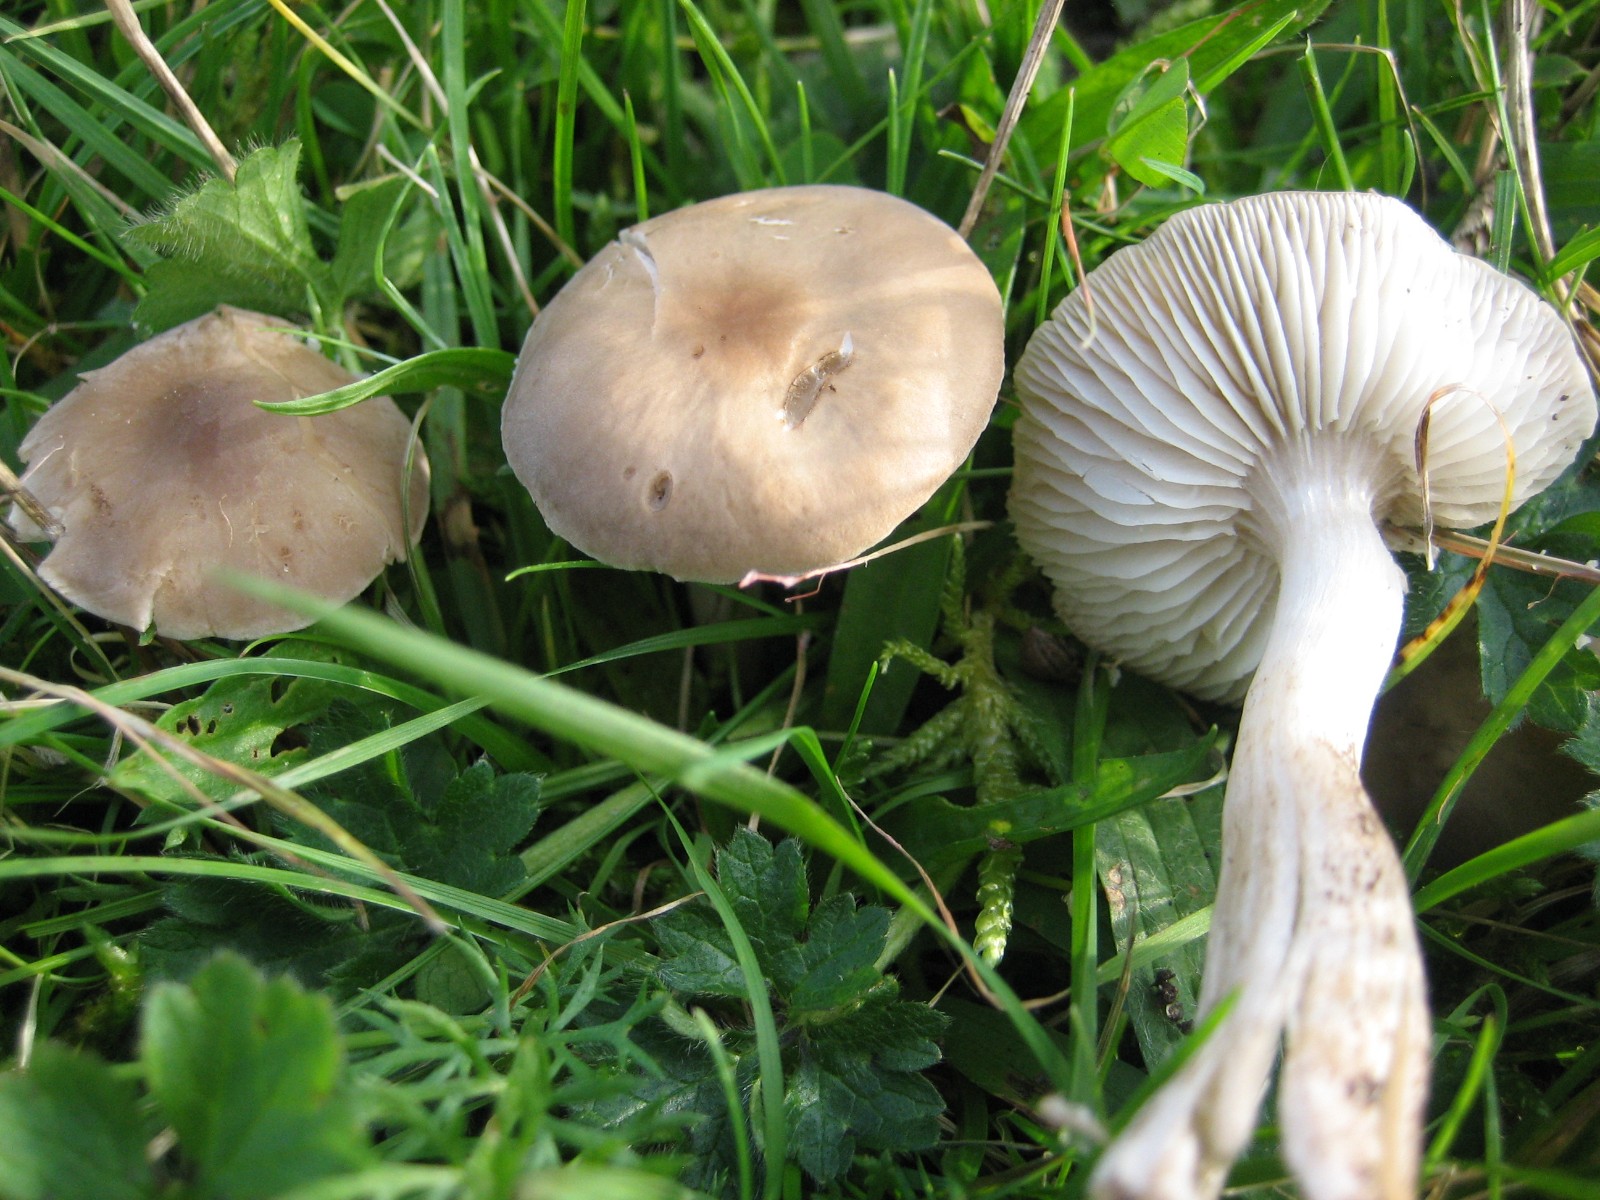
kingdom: Fungi
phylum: Basidiomycota
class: Agaricomycetes
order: Agaricales
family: Tricholomataceae
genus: Dermoloma
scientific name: Dermoloma cuneifolium
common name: eng-nonnehat
